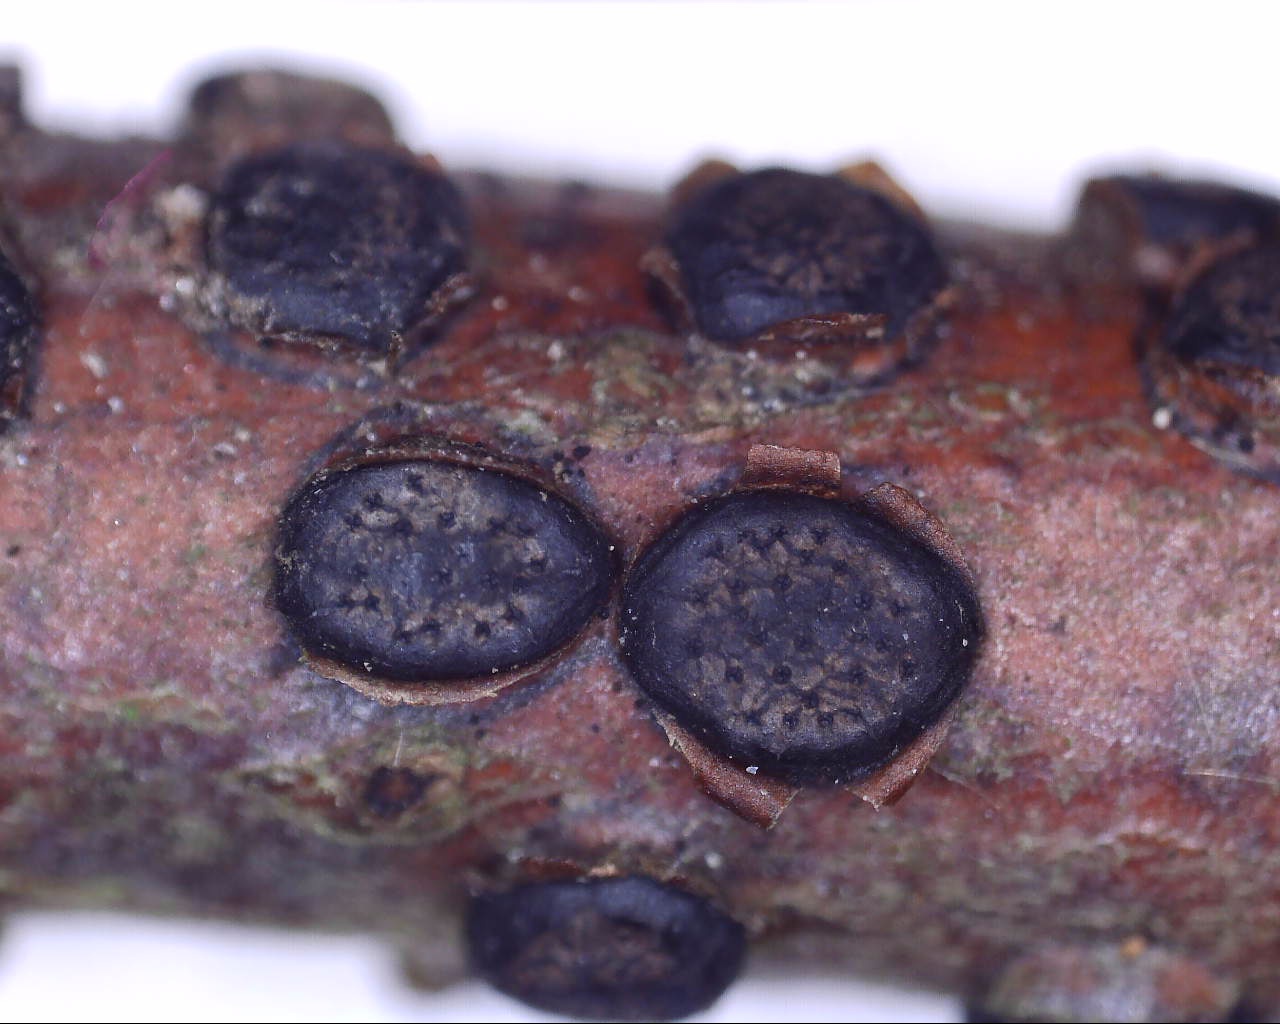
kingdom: Fungi
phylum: Ascomycota
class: Sordariomycetes
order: Xylariales
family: Diatrypaceae
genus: Diatrype
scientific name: Diatrype disciformis
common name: kant-kulskorpe
